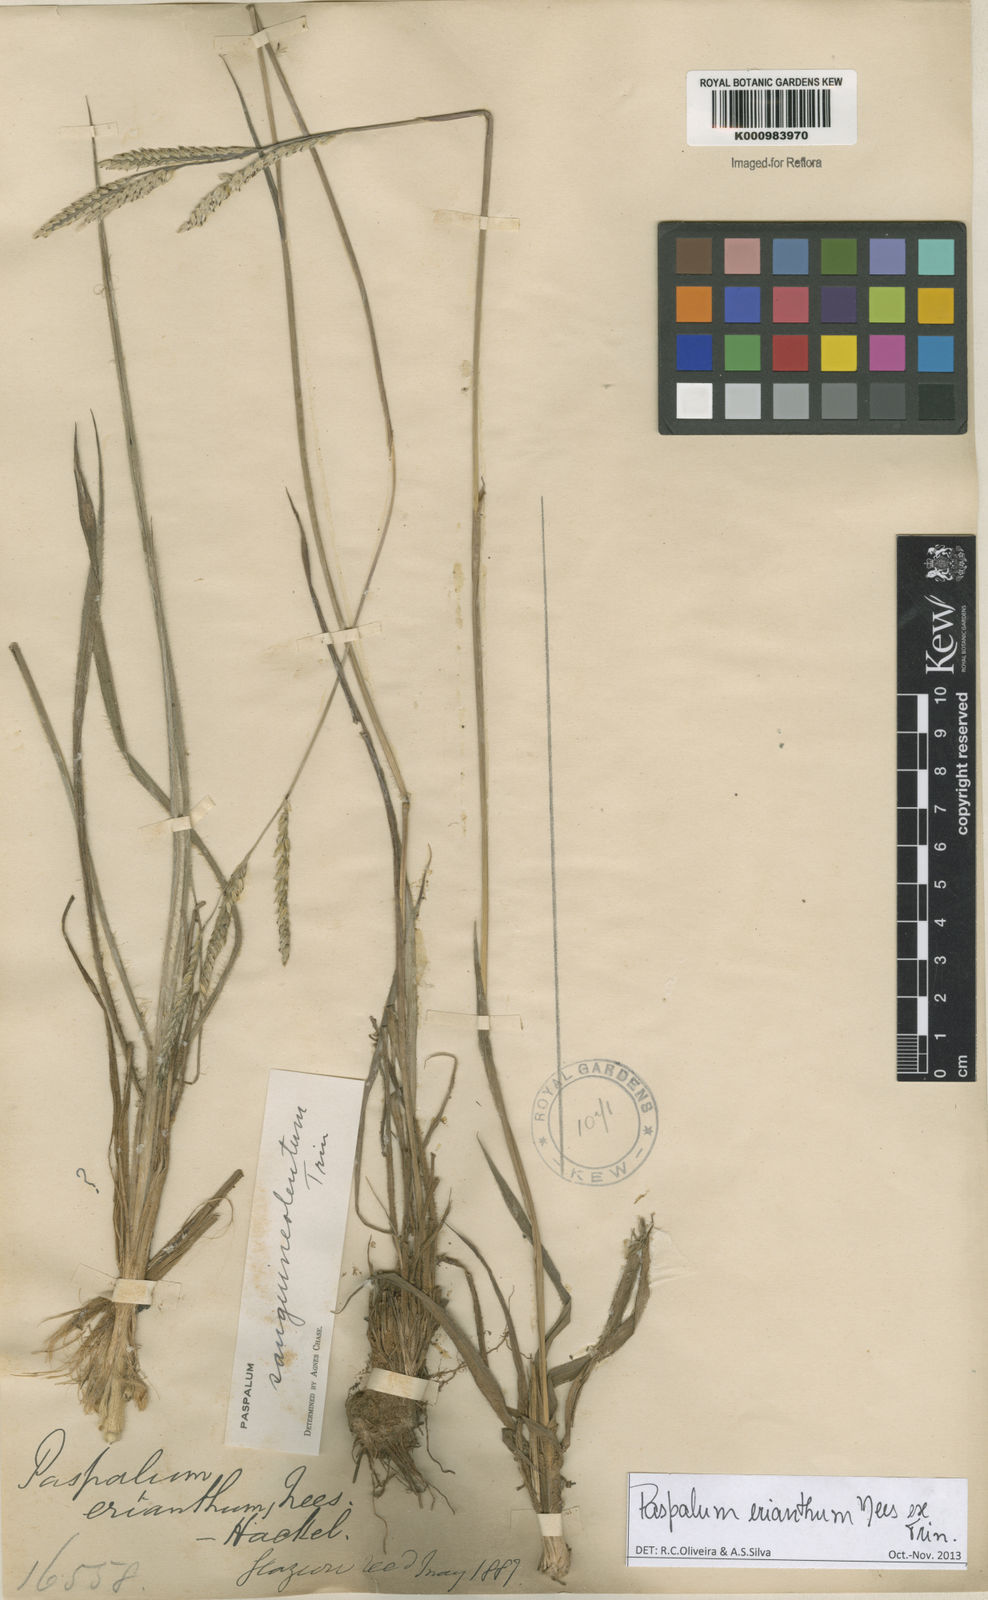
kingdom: Plantae
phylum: Tracheophyta
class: Liliopsida
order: Poales
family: Poaceae
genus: Paspalum
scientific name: Paspalum erianthum
